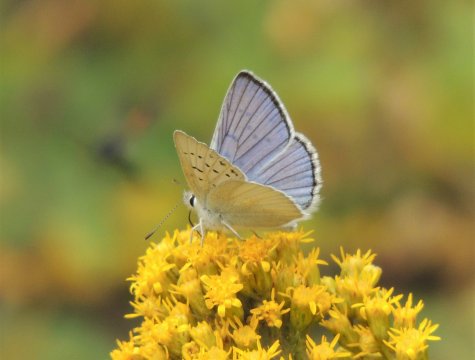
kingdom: Animalia
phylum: Arthropoda
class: Insecta
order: Lepidoptera
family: Lycaenidae
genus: Lycaena
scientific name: Lycaena heteronea
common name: Blue Copper
